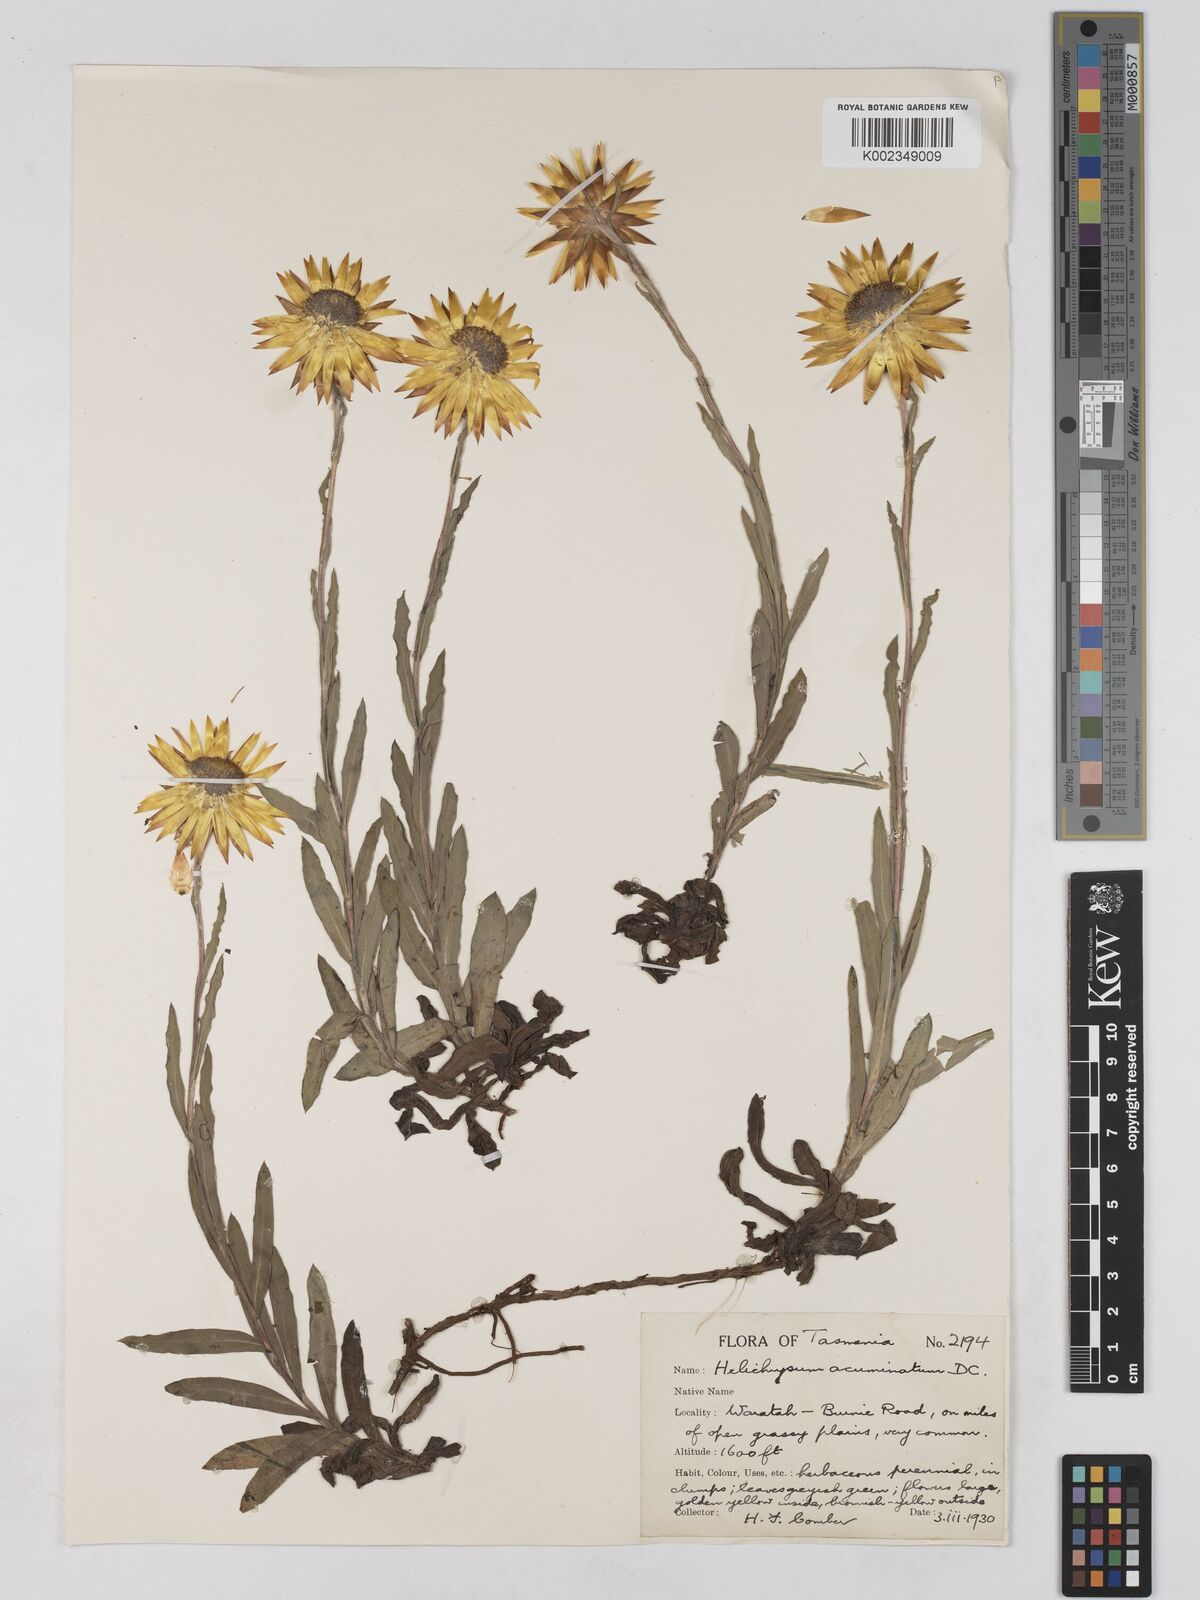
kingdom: Plantae
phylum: Tracheophyta
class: Magnoliopsida
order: Asterales
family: Asteraceae
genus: Xerochrysum
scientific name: Xerochrysum bracteatum
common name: Bracted strawflower
